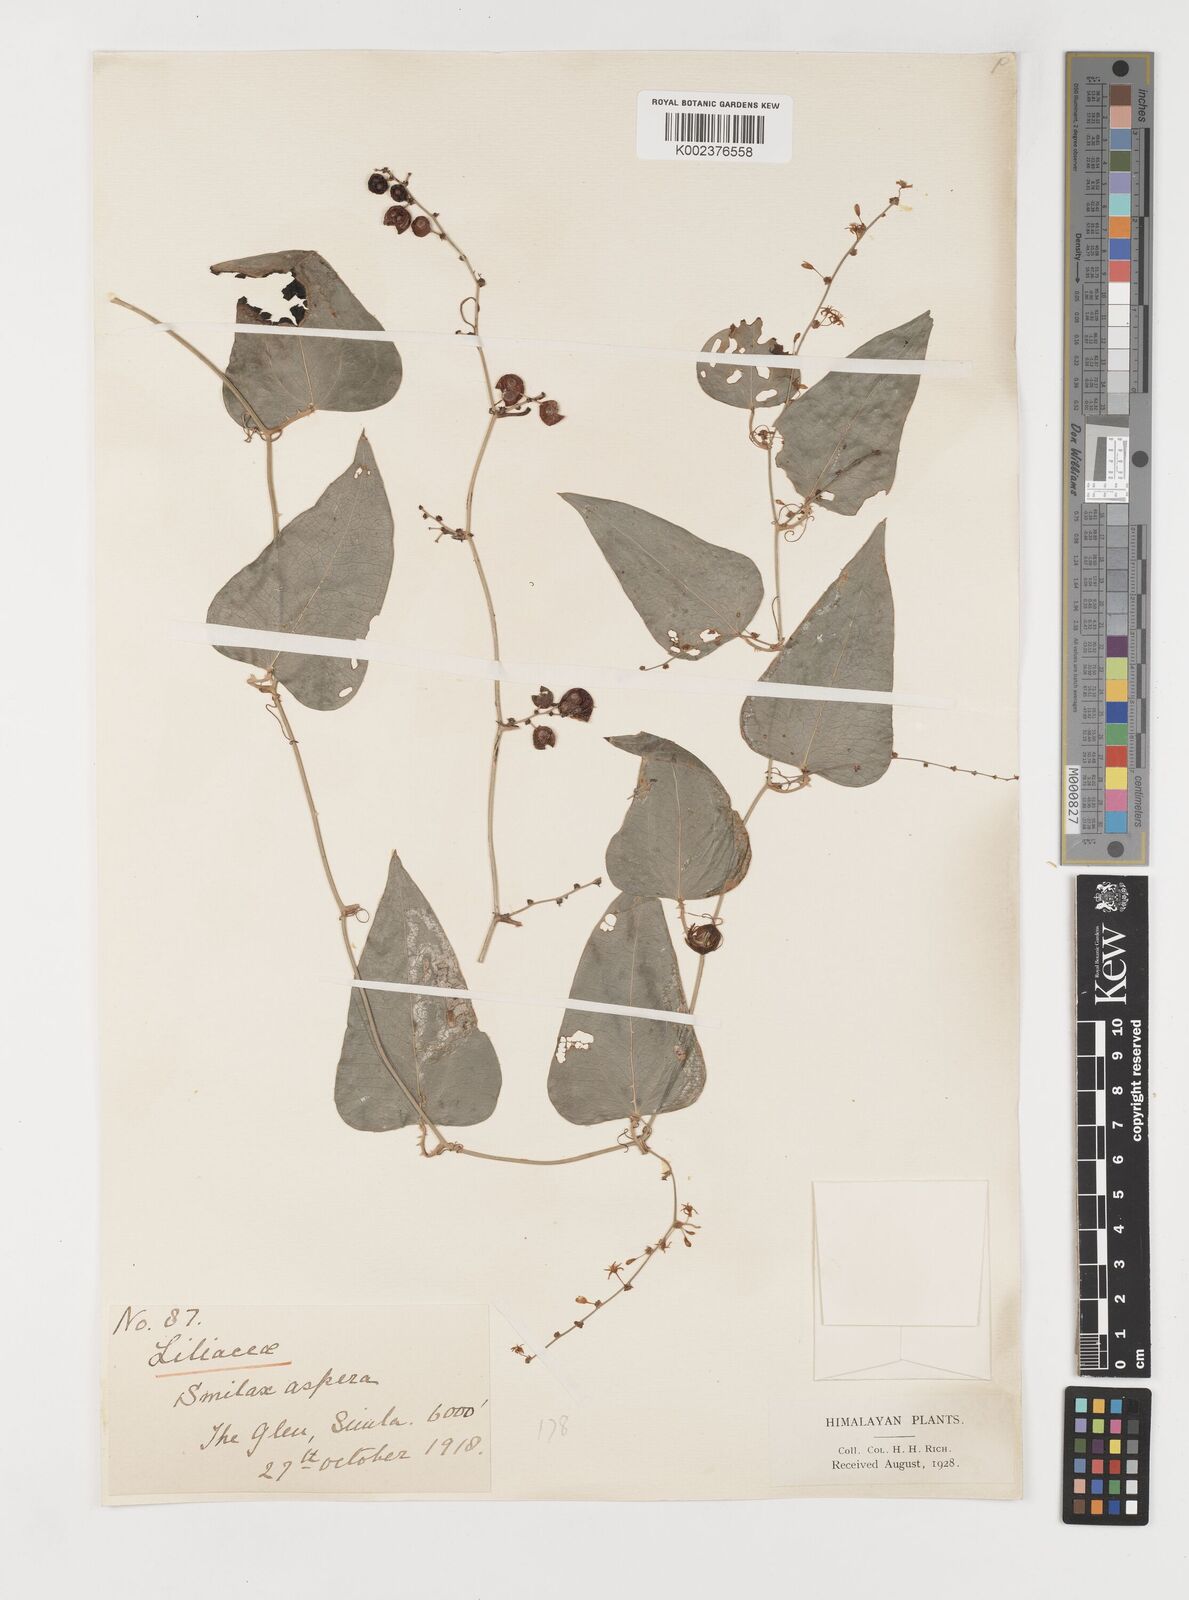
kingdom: Plantae
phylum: Tracheophyta
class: Liliopsida
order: Liliales
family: Smilacaceae
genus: Smilax
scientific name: Smilax aspera
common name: Common smilax
